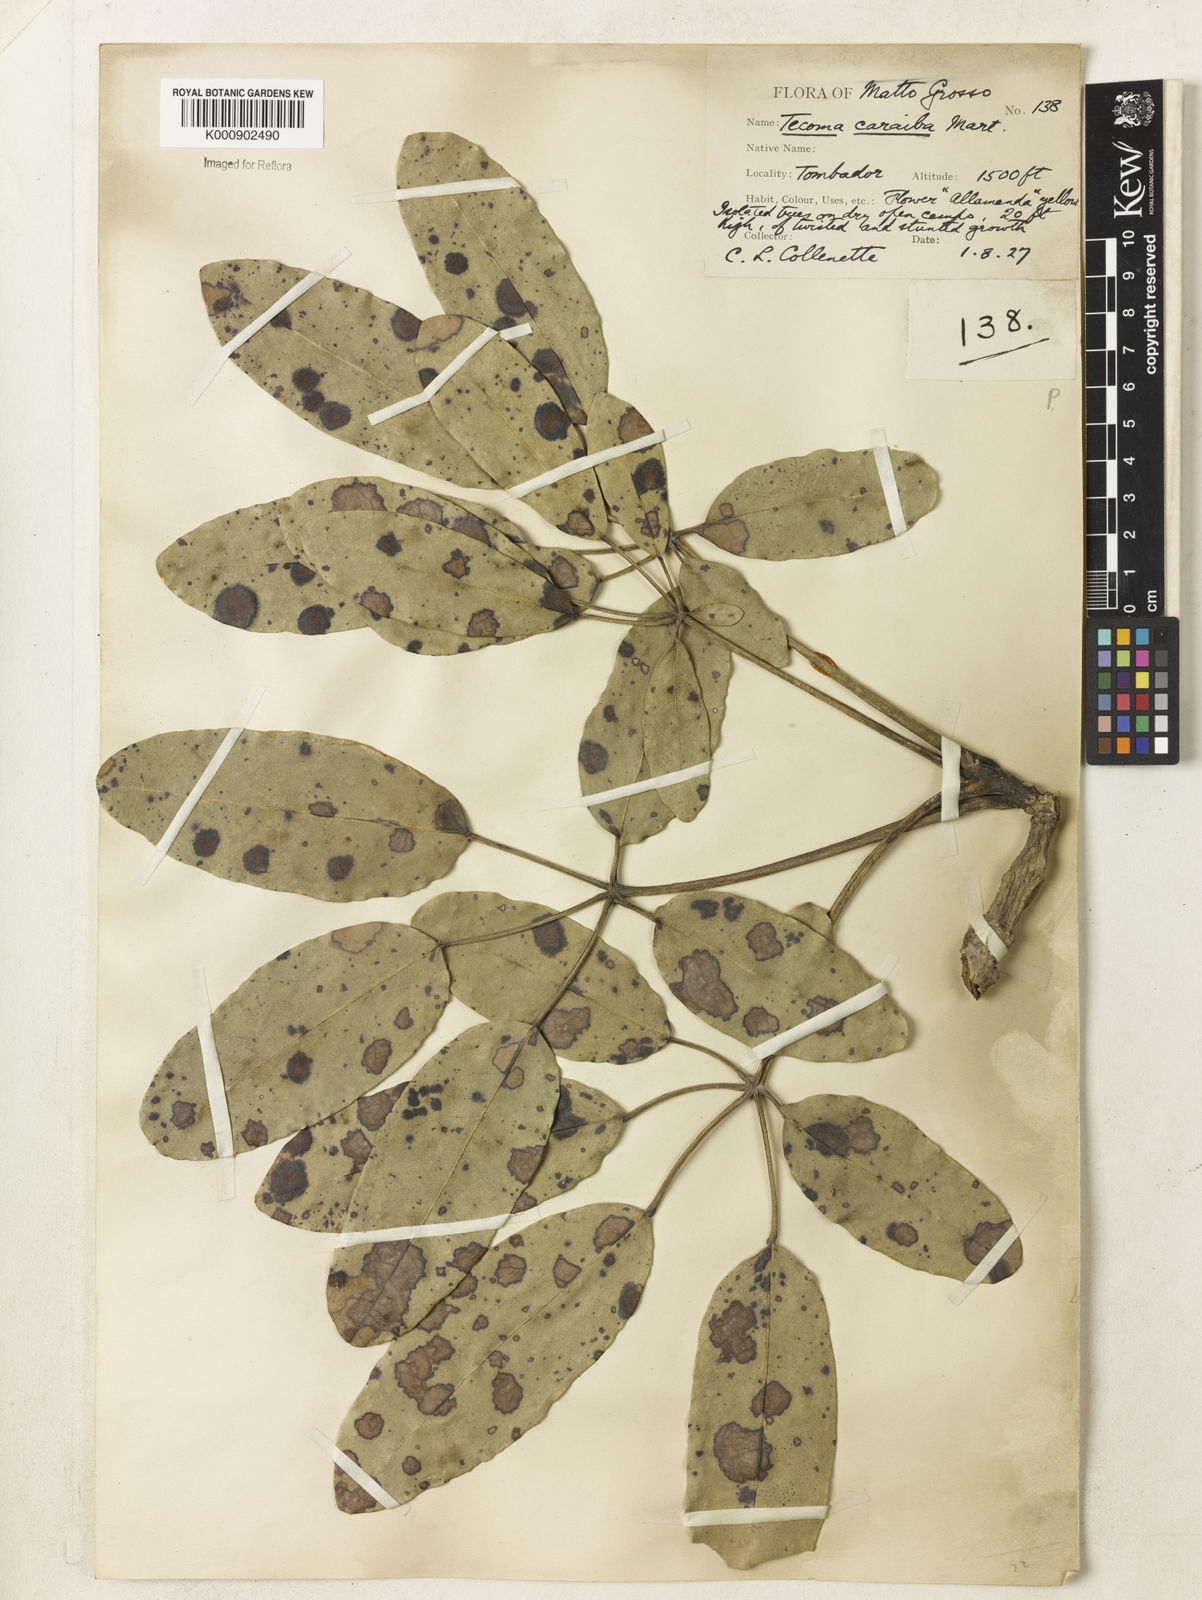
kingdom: Plantae
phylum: Tracheophyta
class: Magnoliopsida
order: Lamiales
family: Bignoniaceae
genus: Tabebuia
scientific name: Tabebuia aurea
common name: Caribbean trumpet-tree
